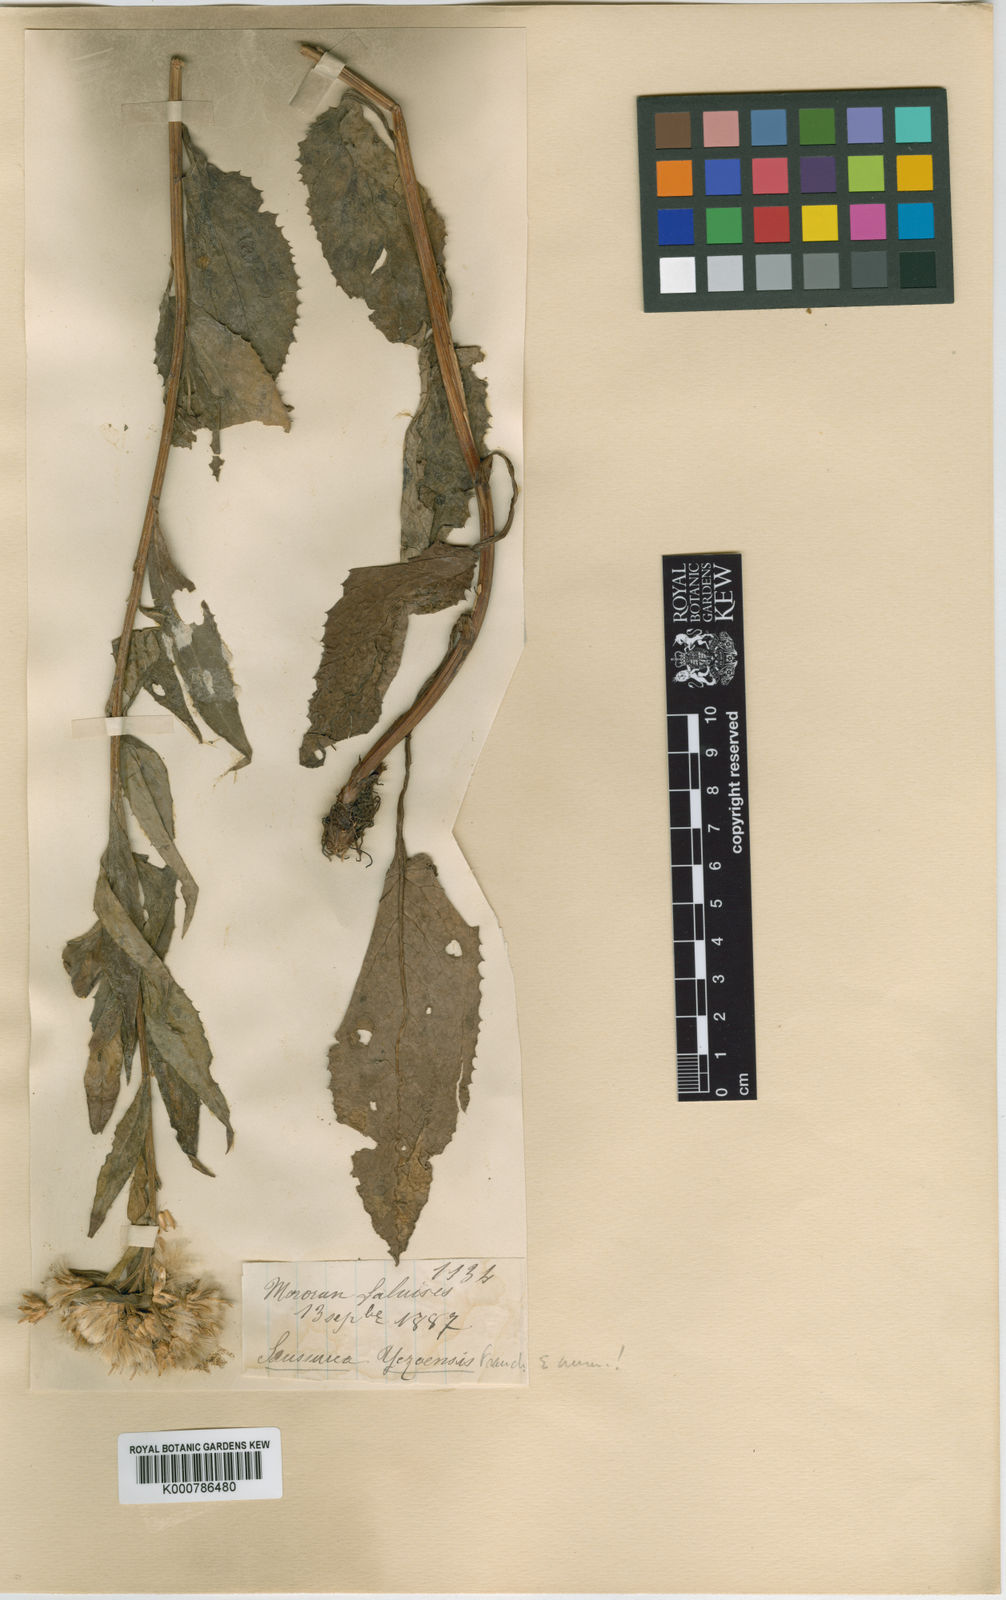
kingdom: Plantae
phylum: Tracheophyta
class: Magnoliopsida
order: Asterales
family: Asteraceae
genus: Saussurea
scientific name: Saussurea riederi
